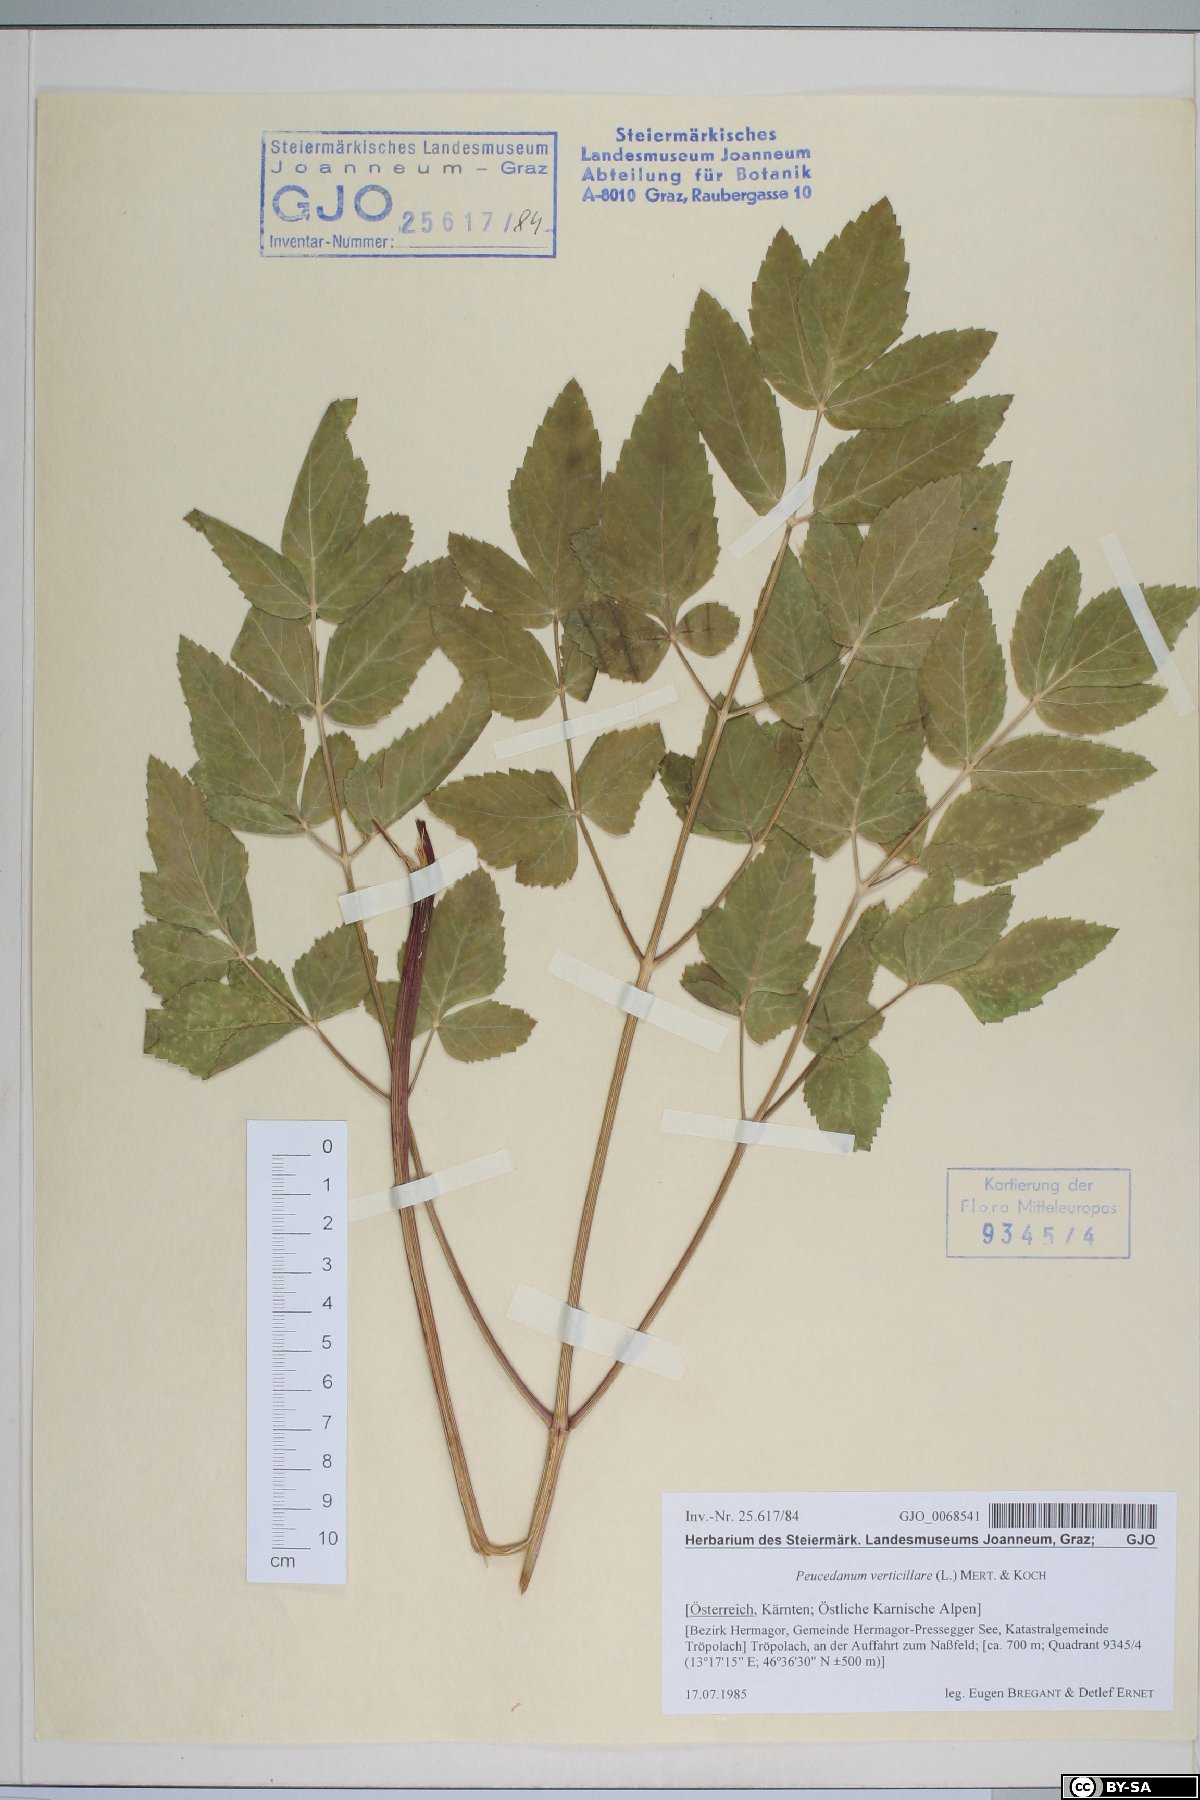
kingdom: Plantae
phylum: Tracheophyta
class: Magnoliopsida
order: Apiales
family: Apiaceae
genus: Tommasinia
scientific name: Tommasinia altissima
